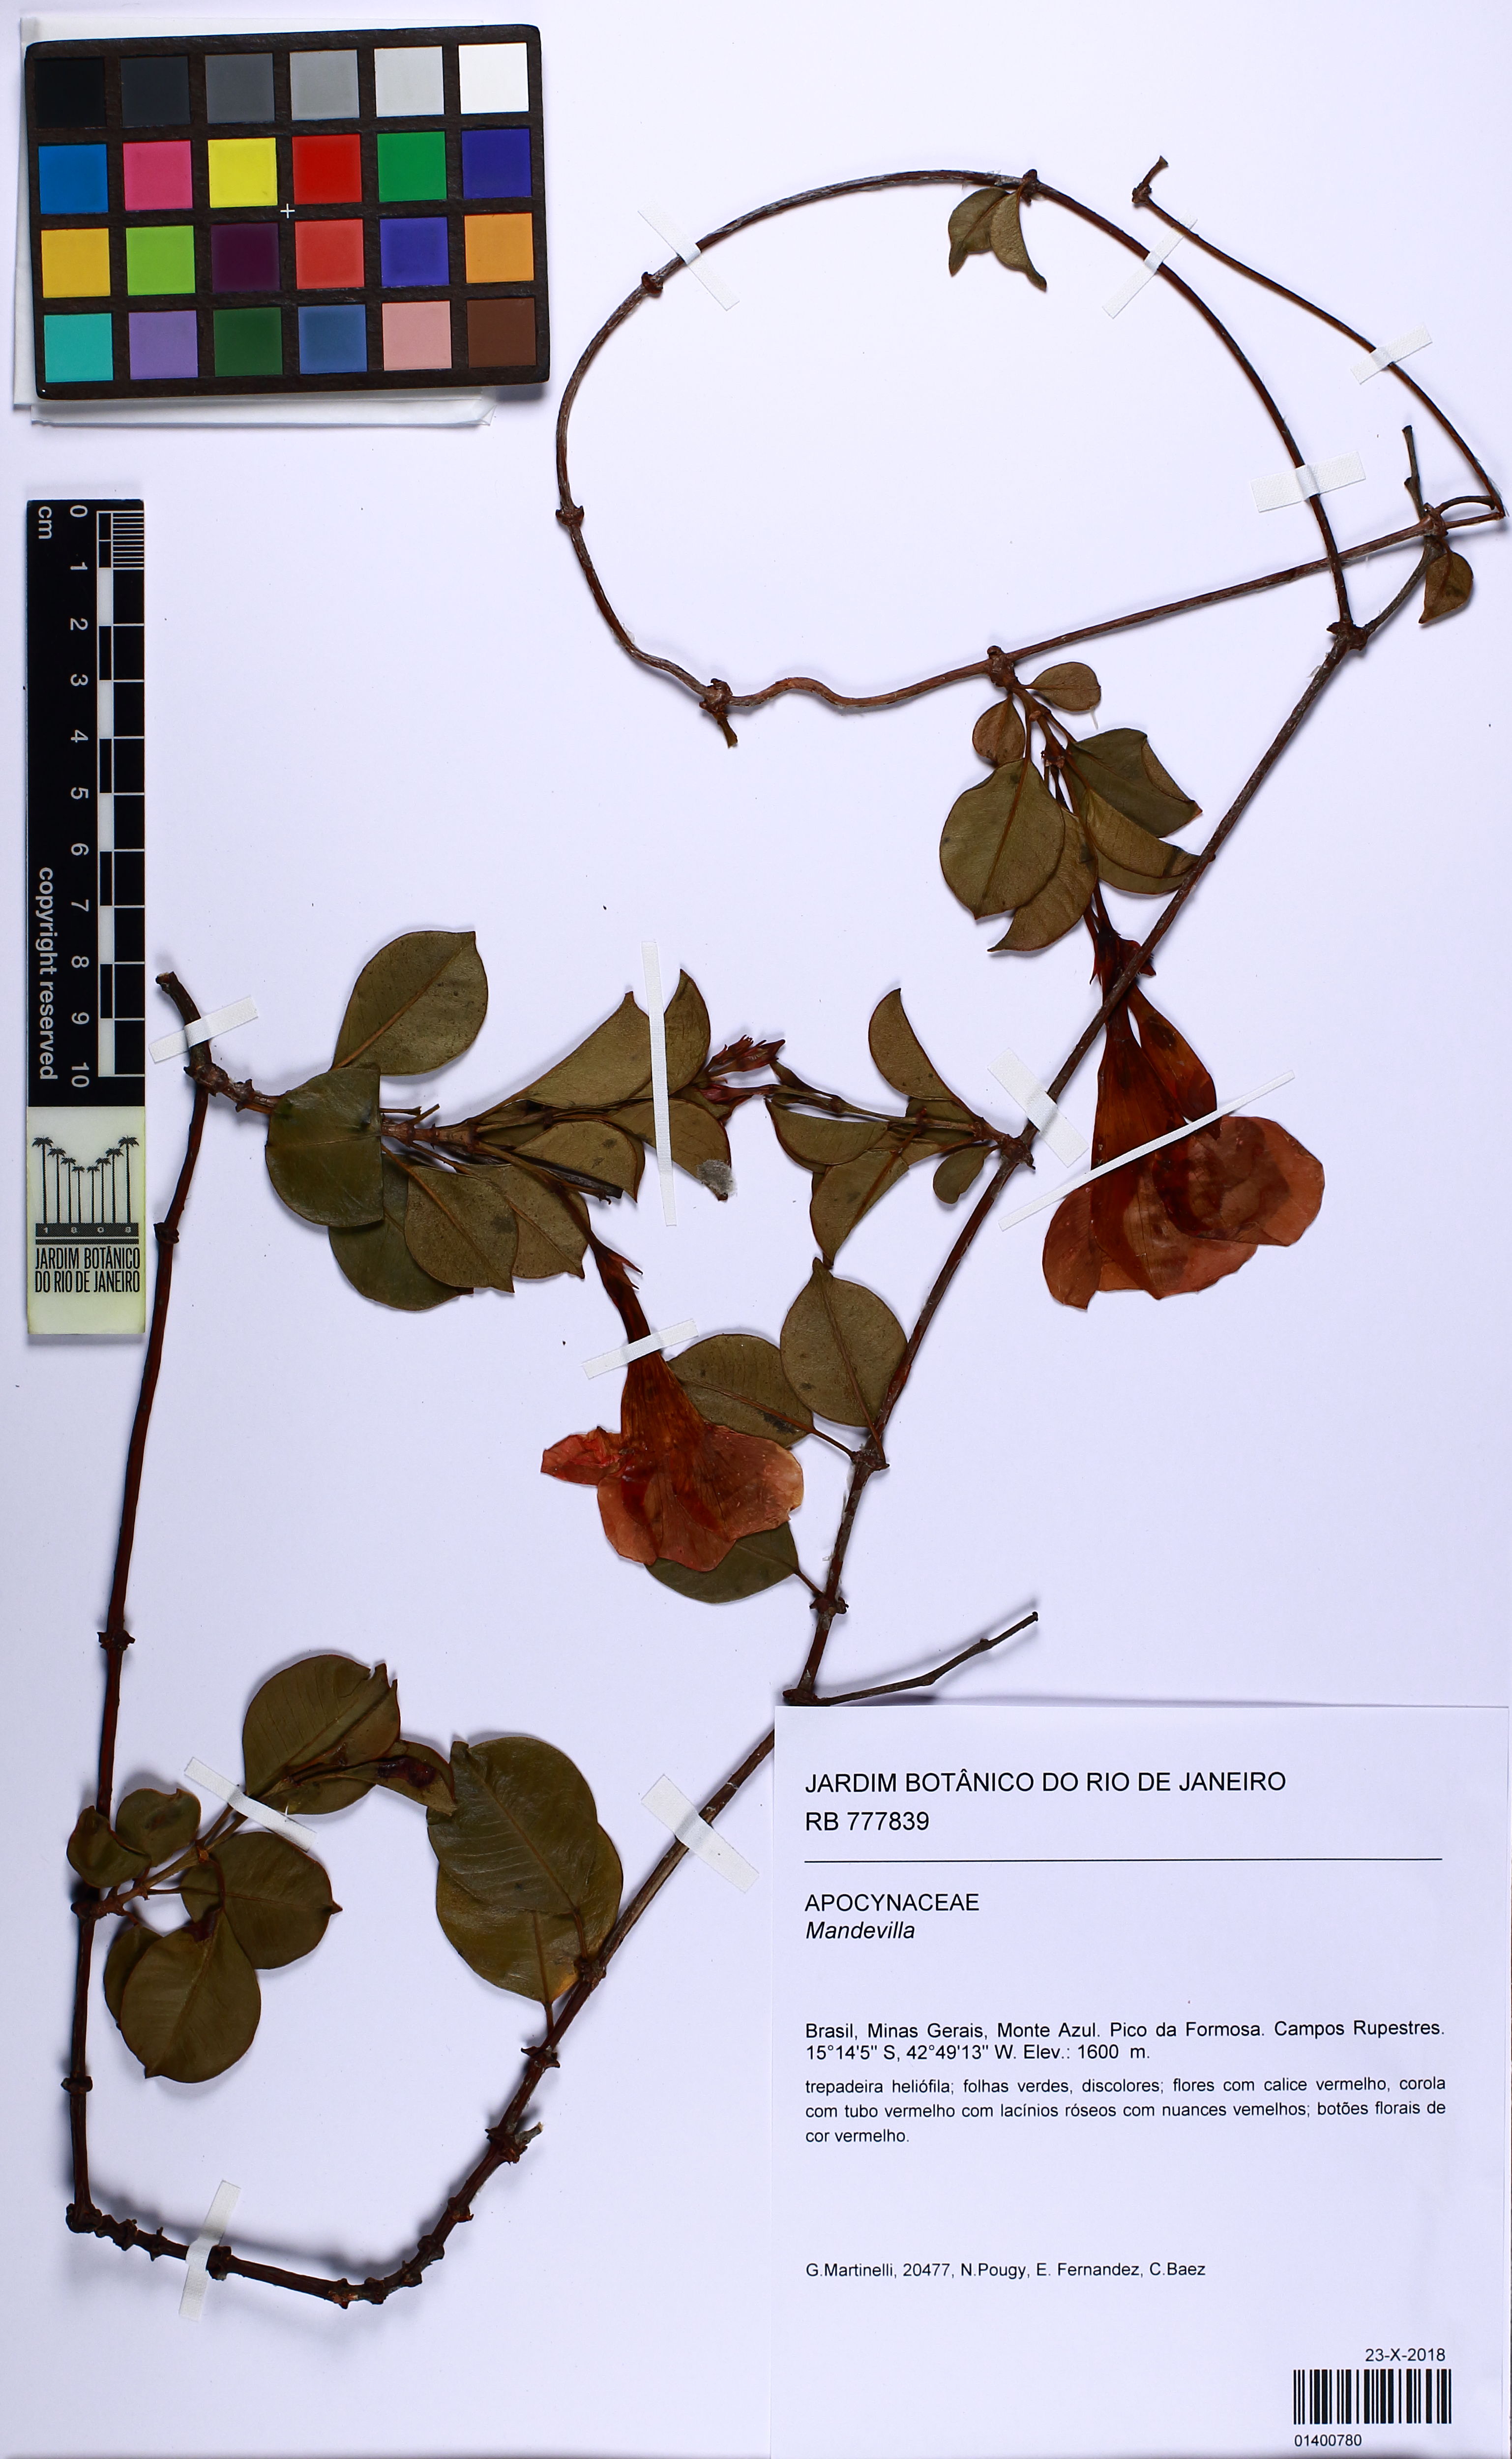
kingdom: Plantae
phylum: Tracheophyta
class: Magnoliopsida
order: Gentianales
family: Apocynaceae
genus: Mandevilla
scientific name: Mandevilla
